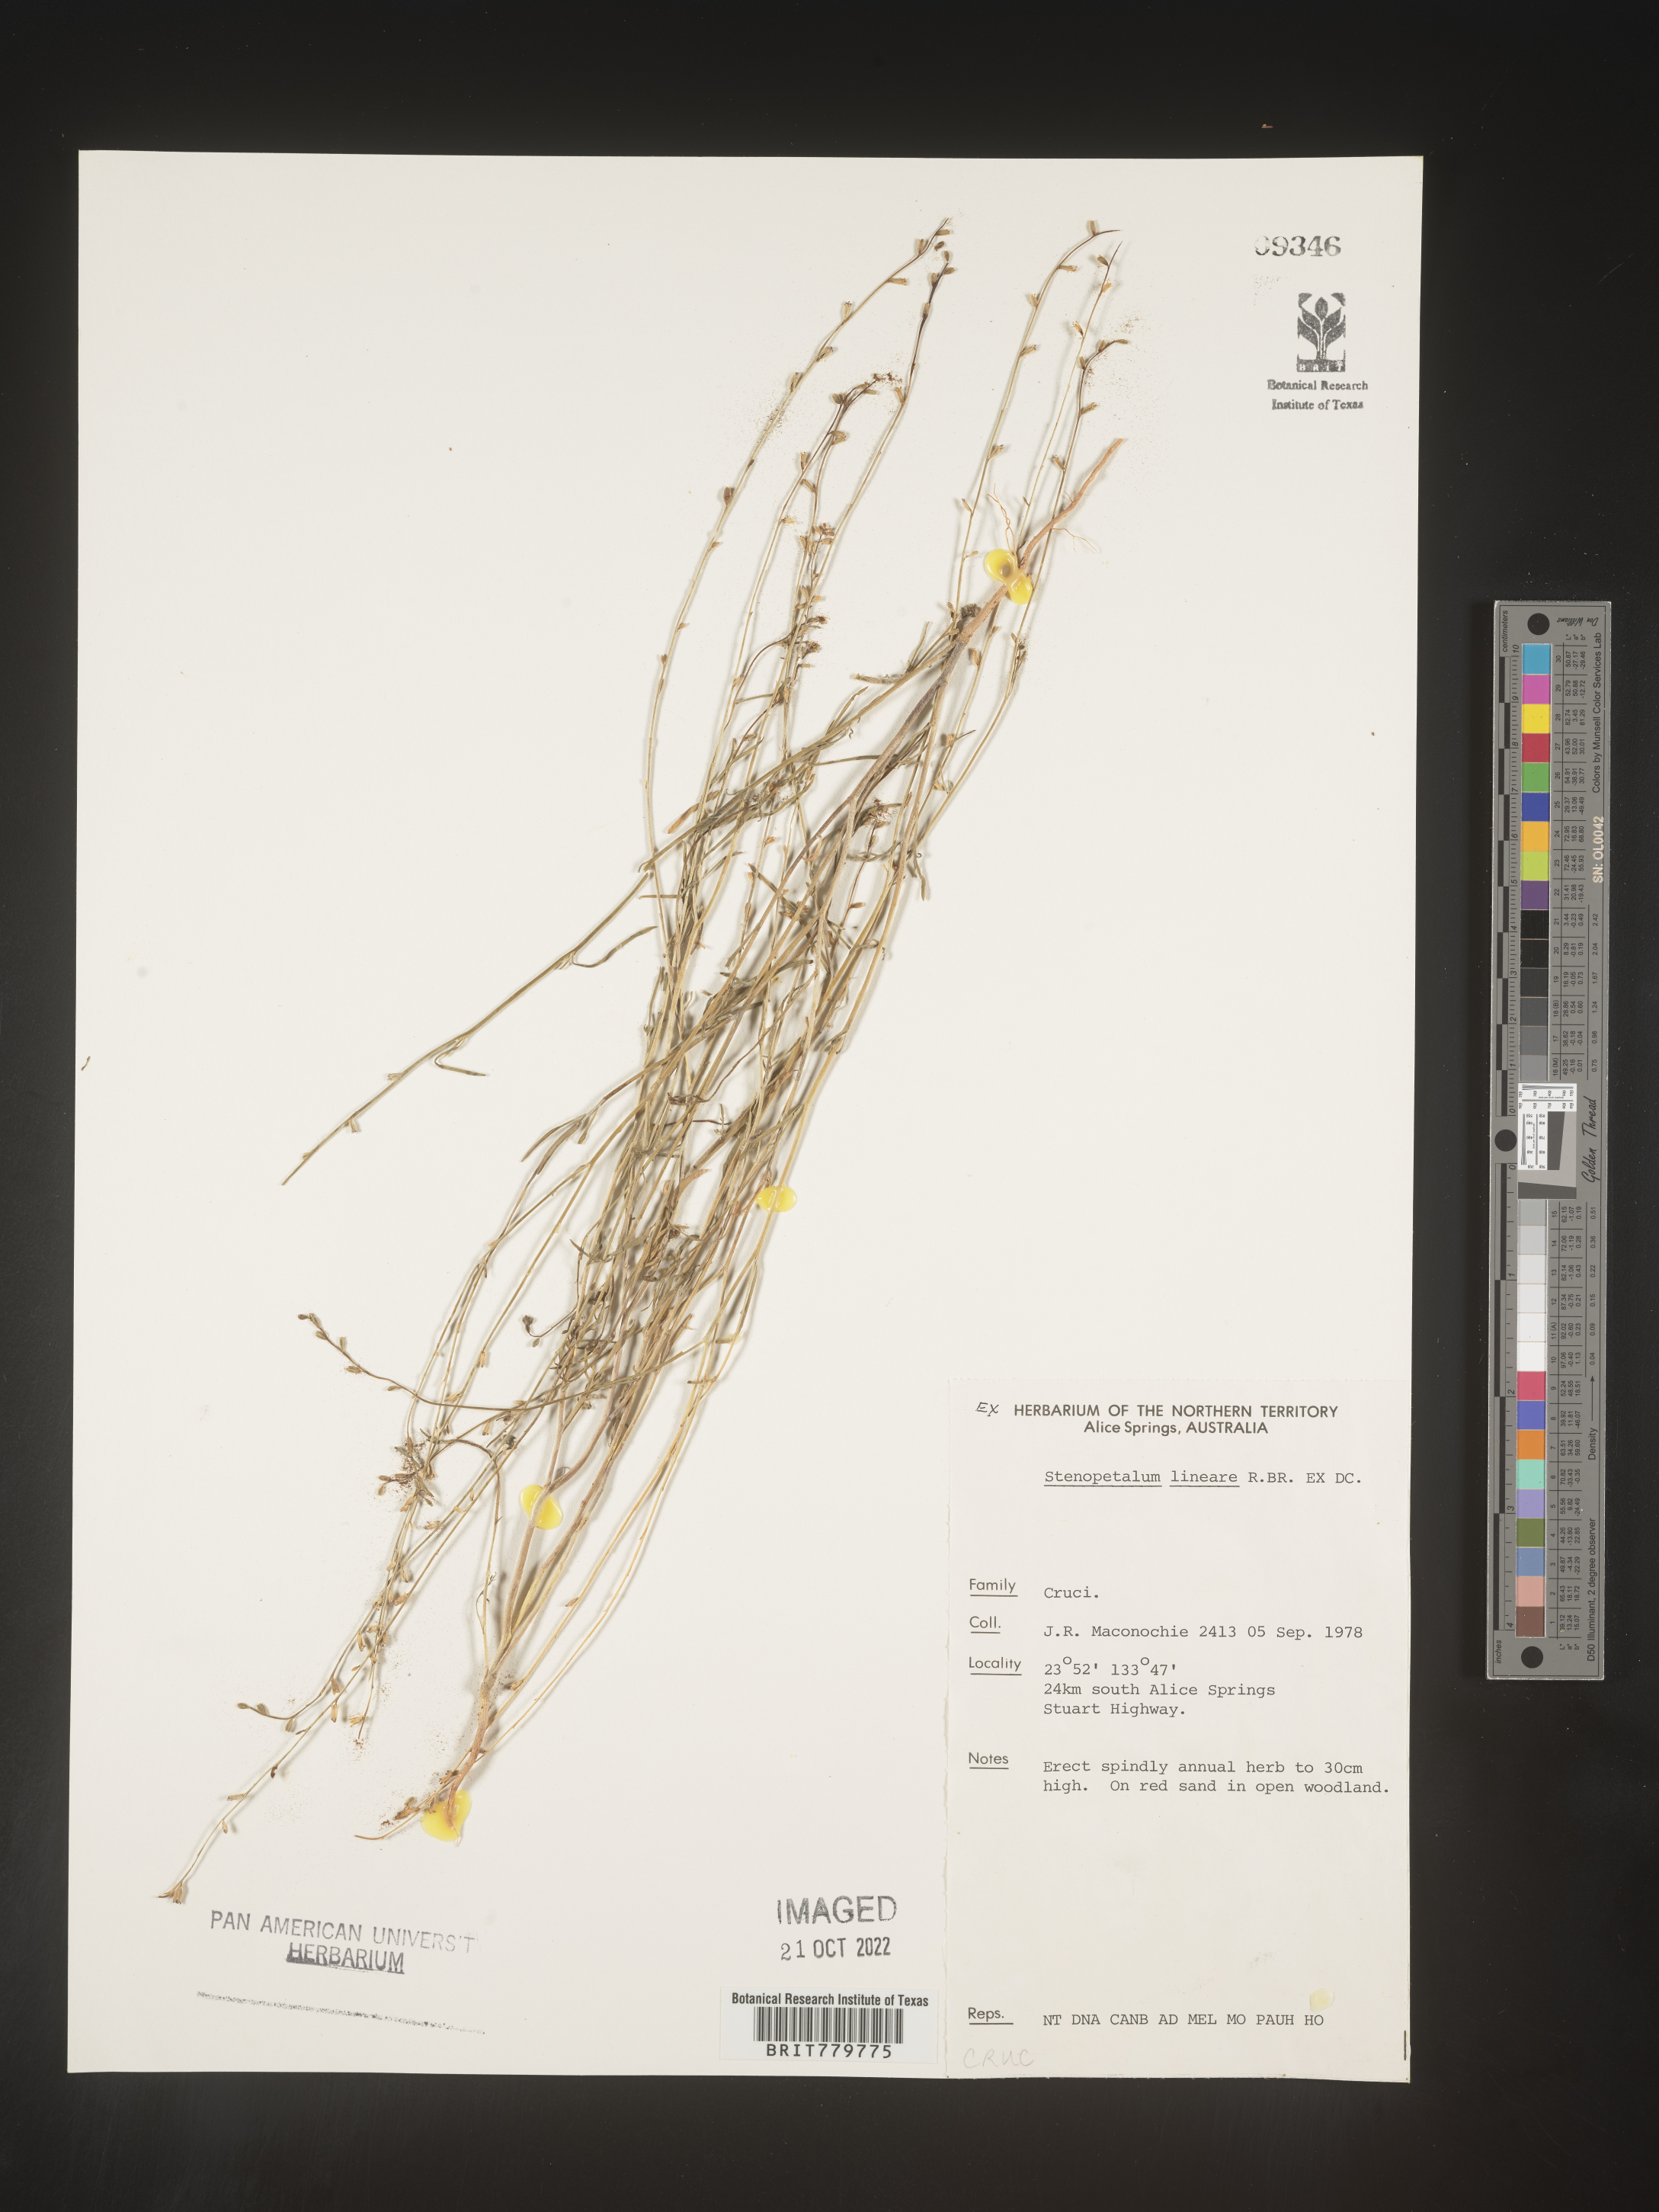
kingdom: Plantae
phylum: Tracheophyta
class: Magnoliopsida
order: Brassicales
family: Brassicaceae
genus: Stenopetalum
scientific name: Stenopetalum
